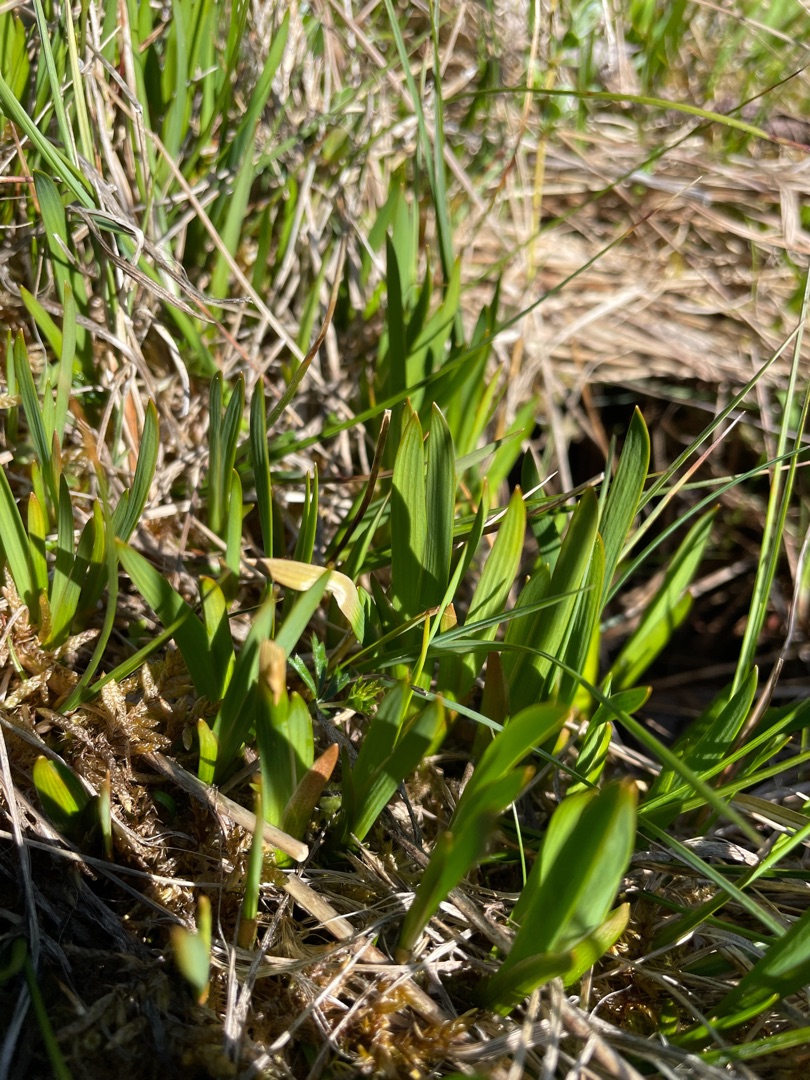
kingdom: Plantae
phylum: Tracheophyta
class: Liliopsida
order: Dioscoreales
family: Nartheciaceae
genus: Narthecium
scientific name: Narthecium ossifragum
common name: Benbræk
